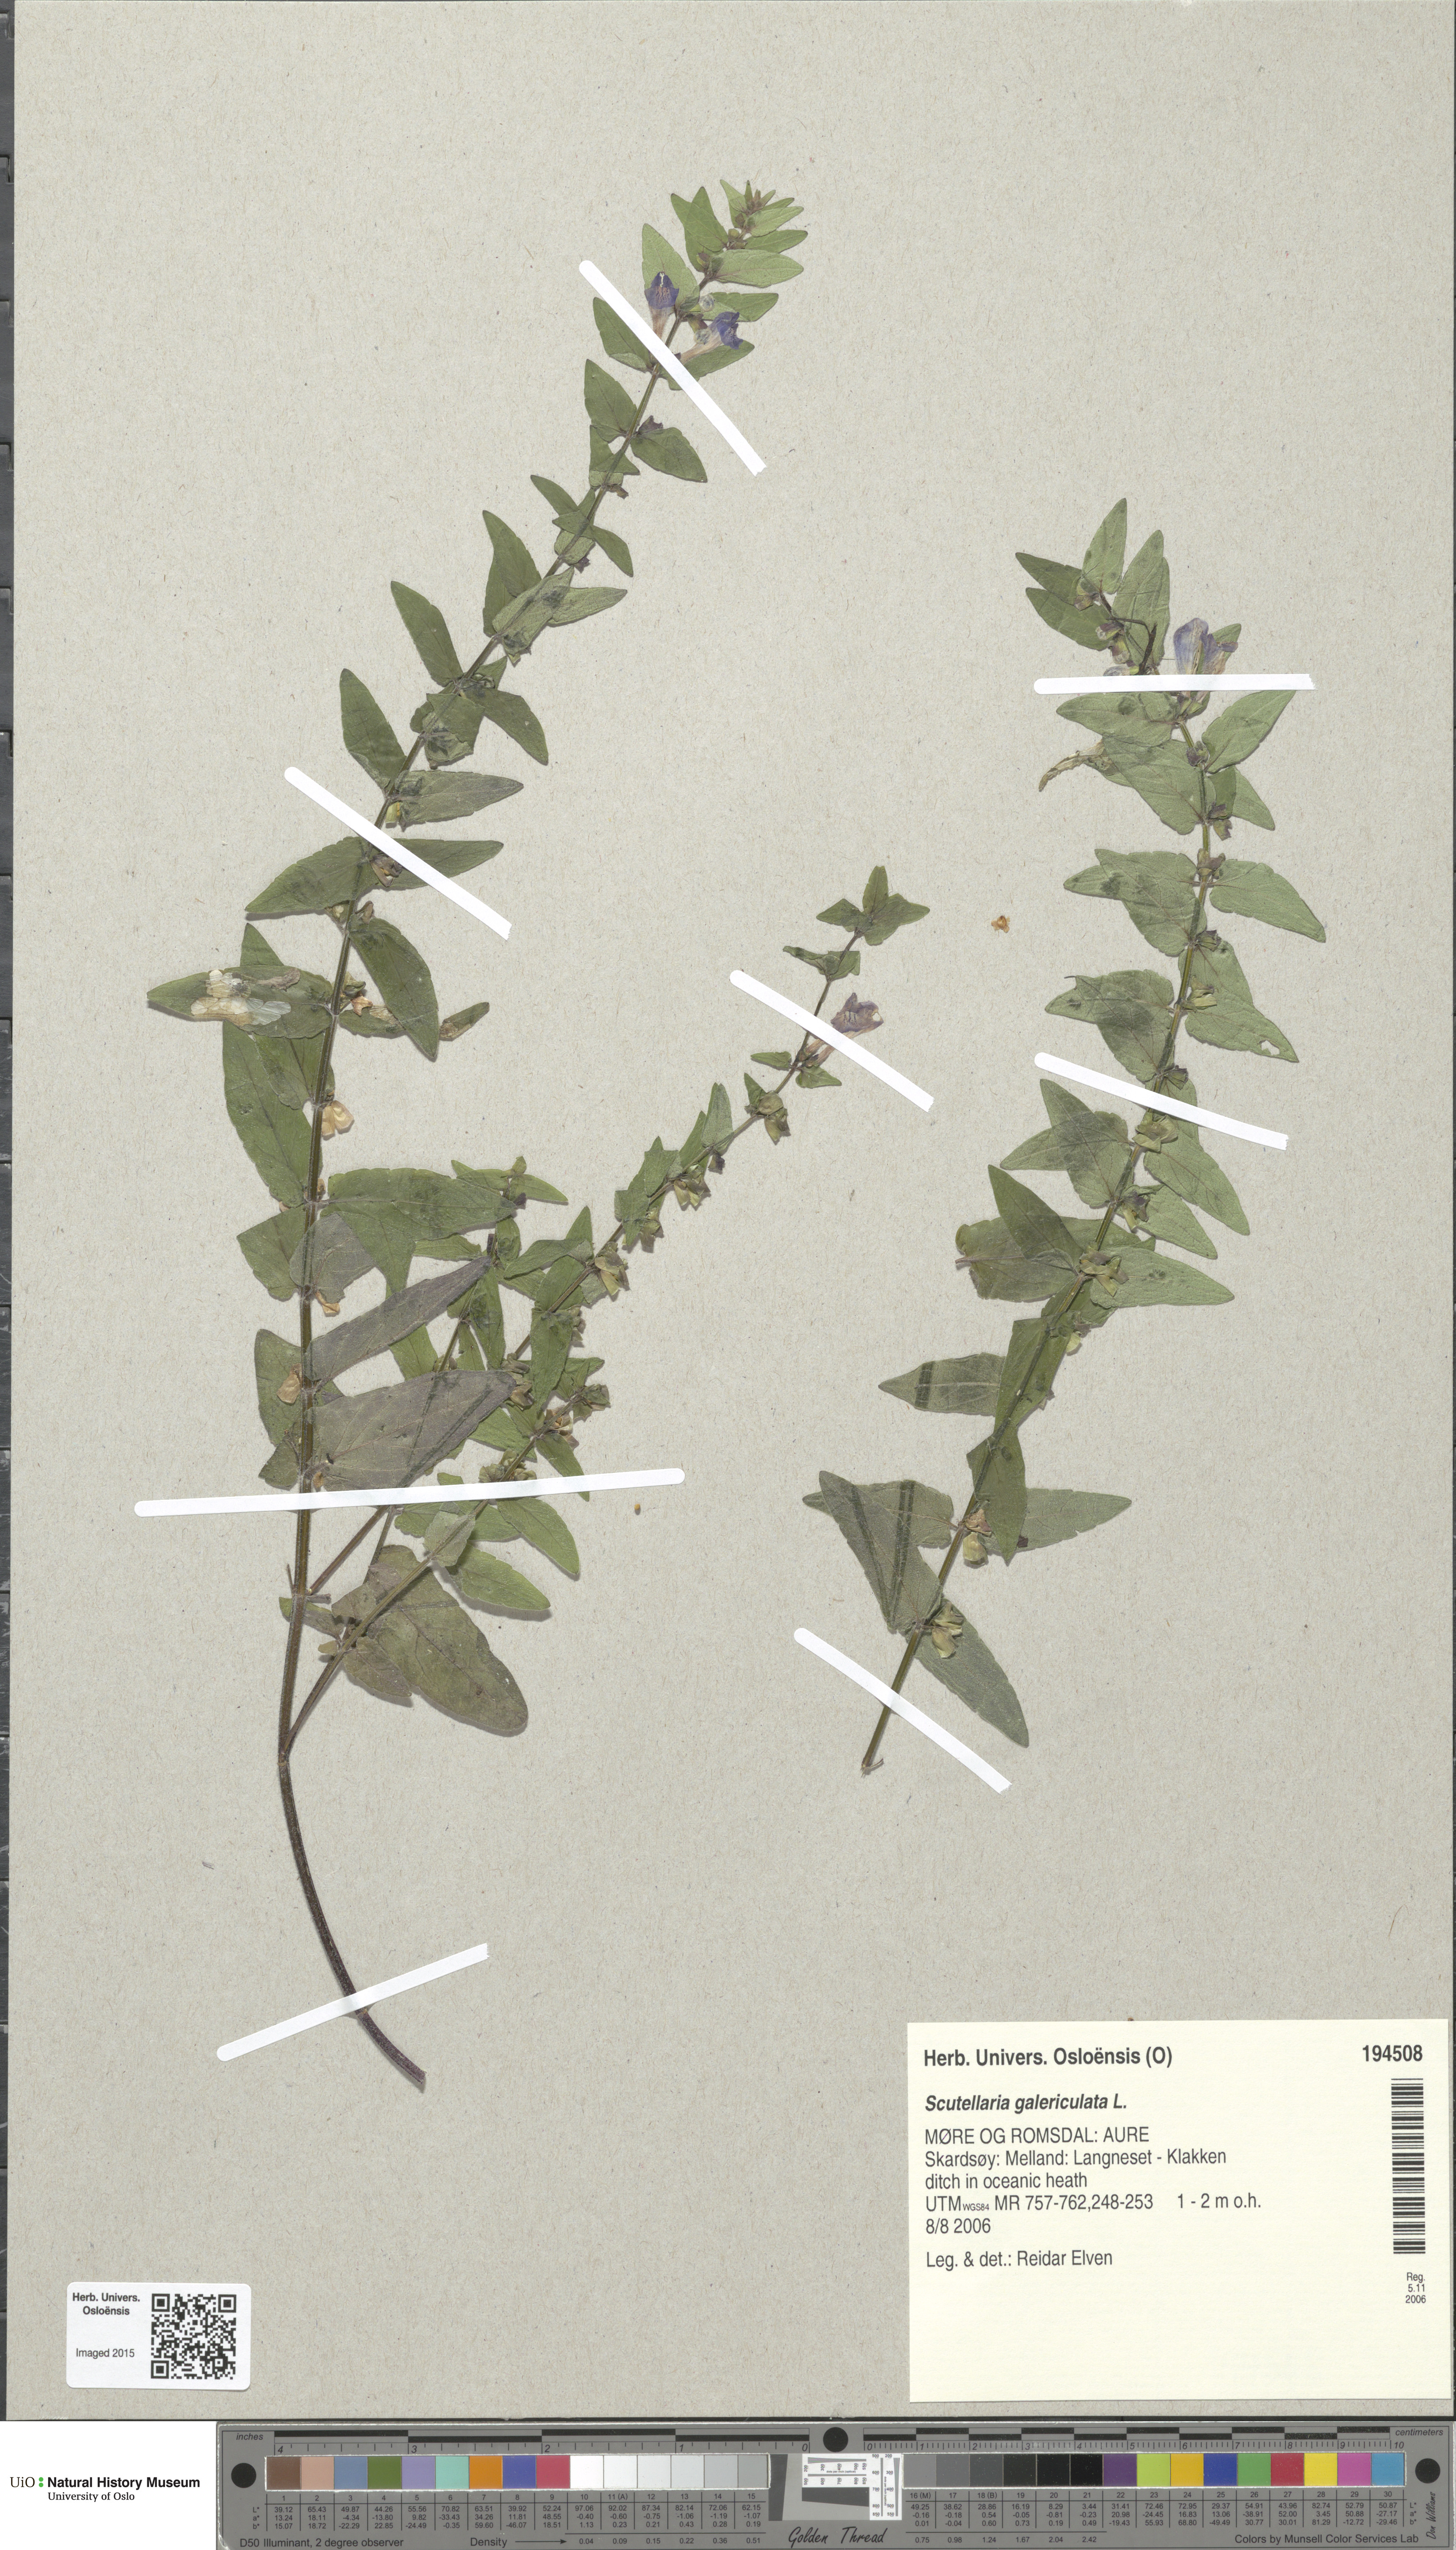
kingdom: Plantae
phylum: Tracheophyta
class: Magnoliopsida
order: Lamiales
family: Lamiaceae
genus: Scutellaria
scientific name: Scutellaria galericulata
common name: Skullcap
